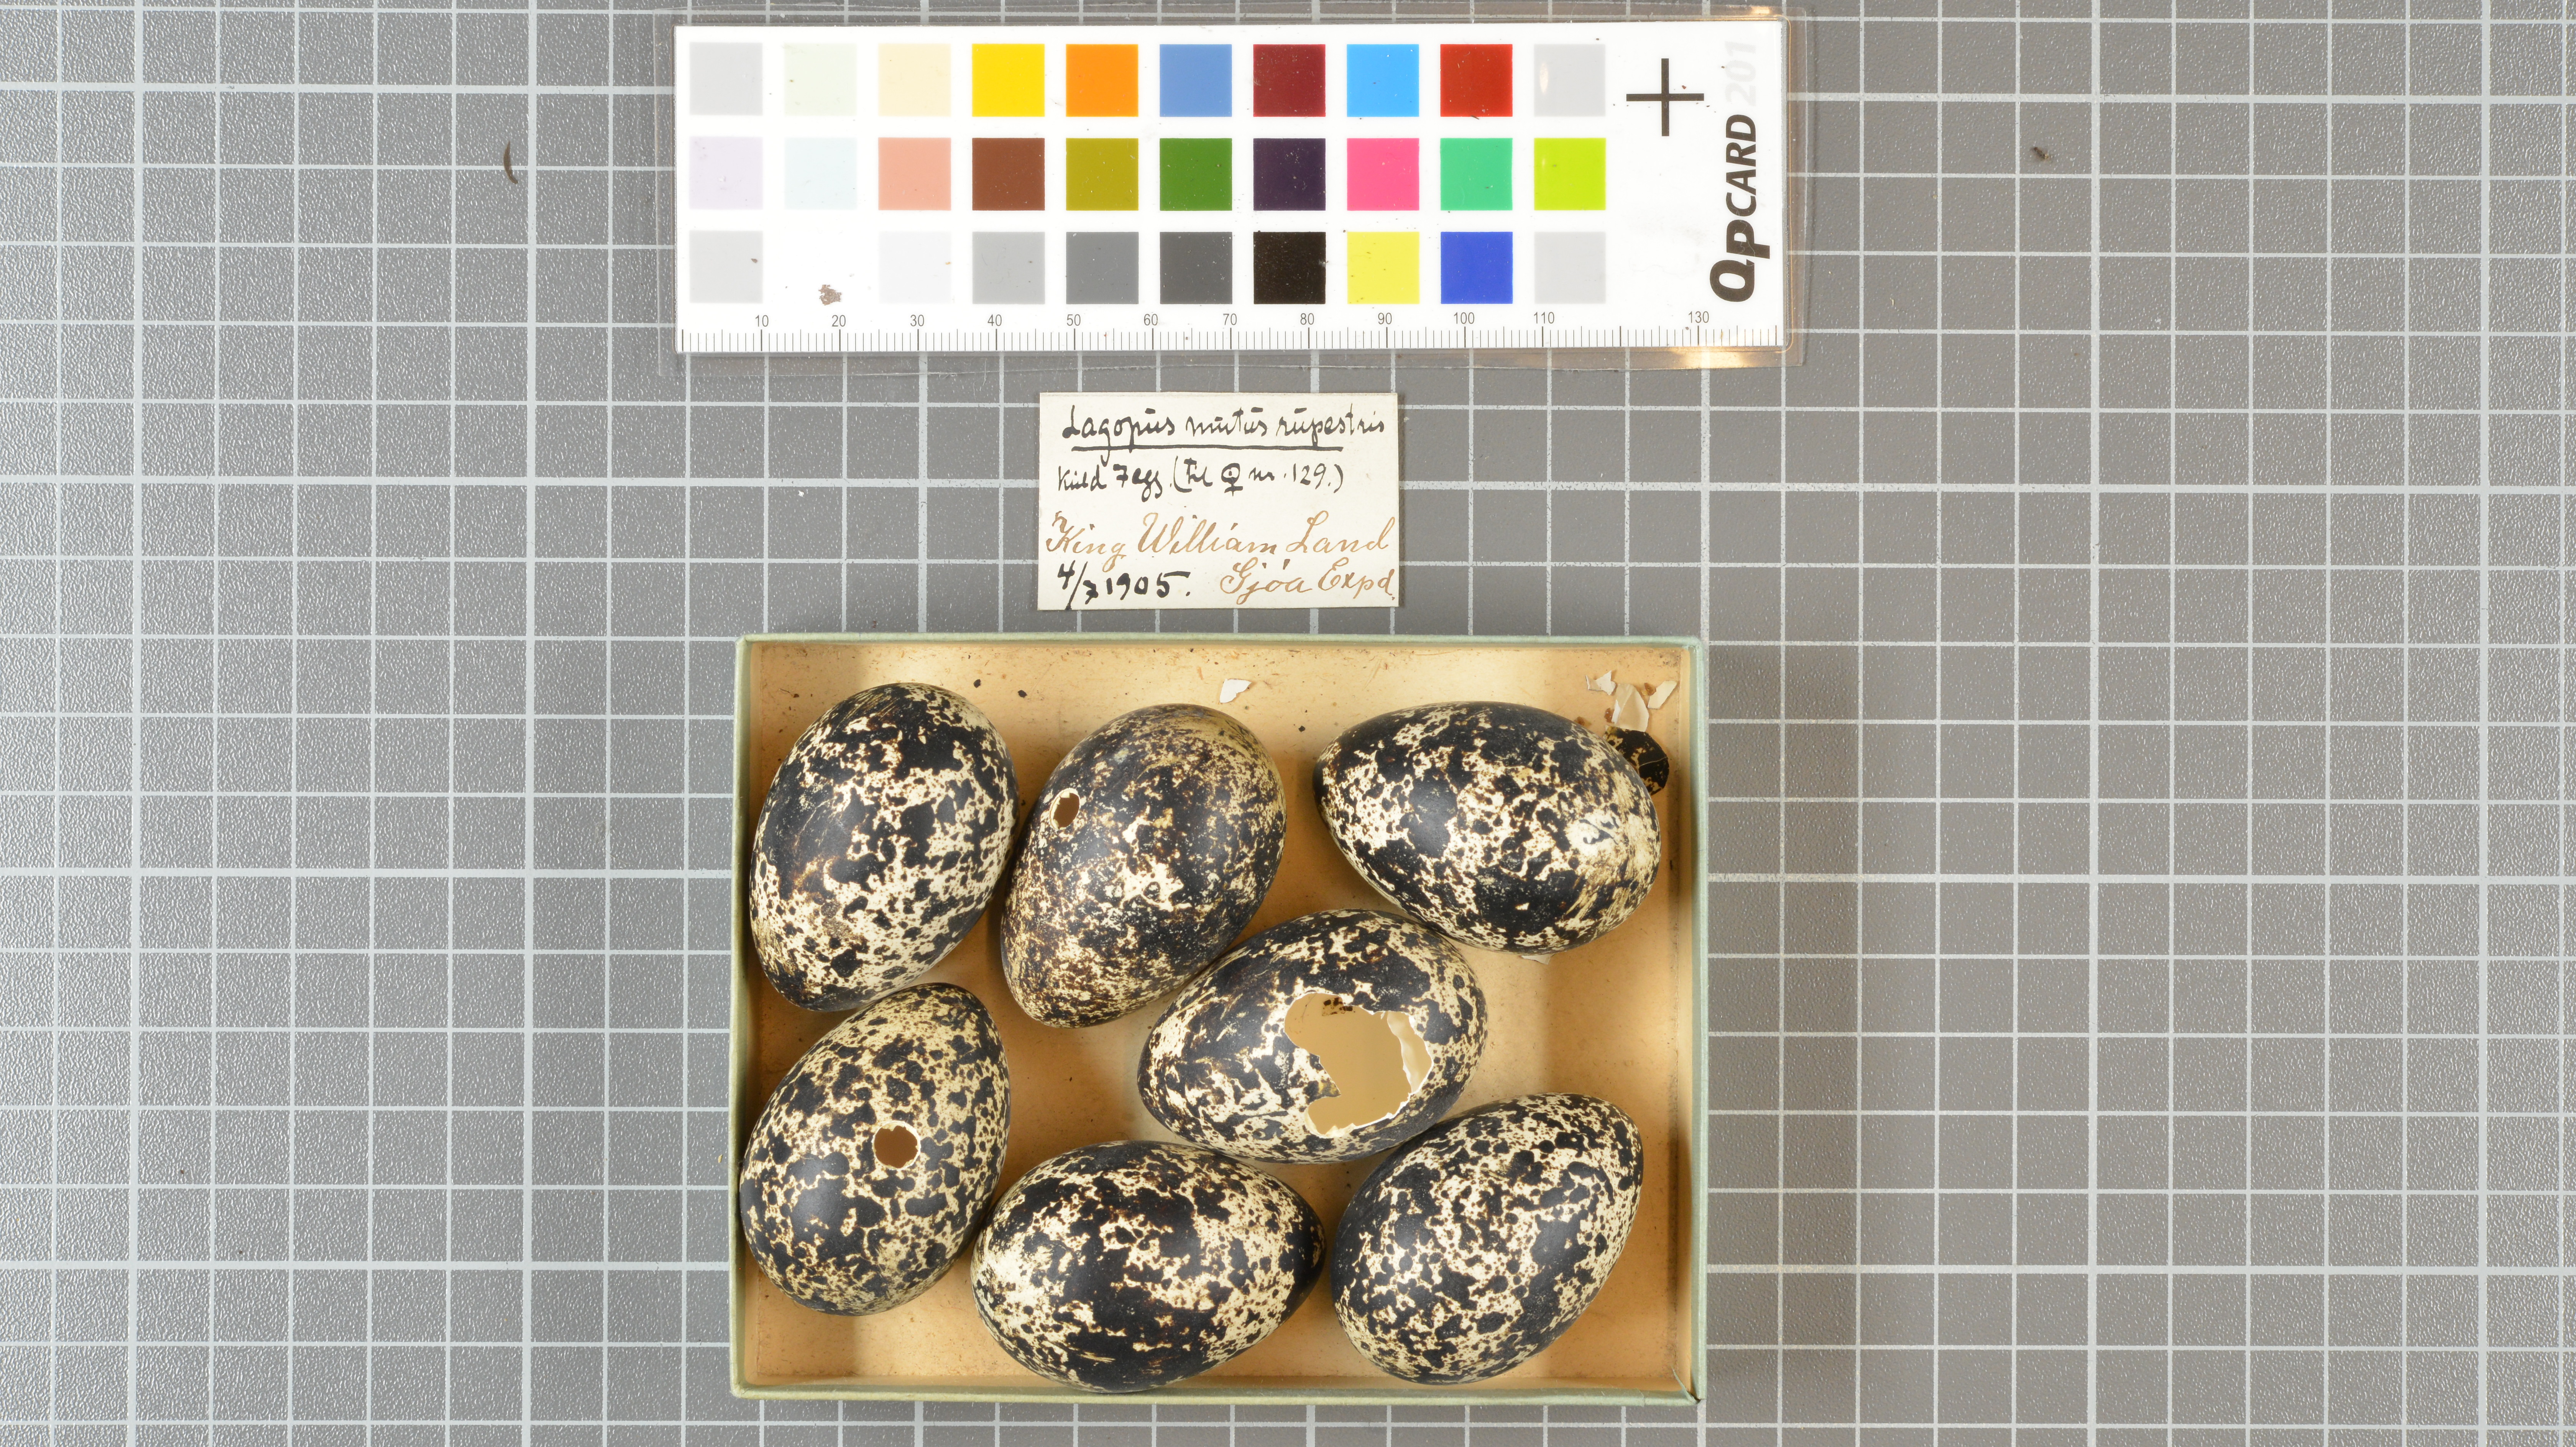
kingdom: Animalia
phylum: Chordata
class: Aves
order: Galliformes
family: Phasianidae
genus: Lagopus
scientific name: Lagopus muta
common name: Rock ptarmigan
